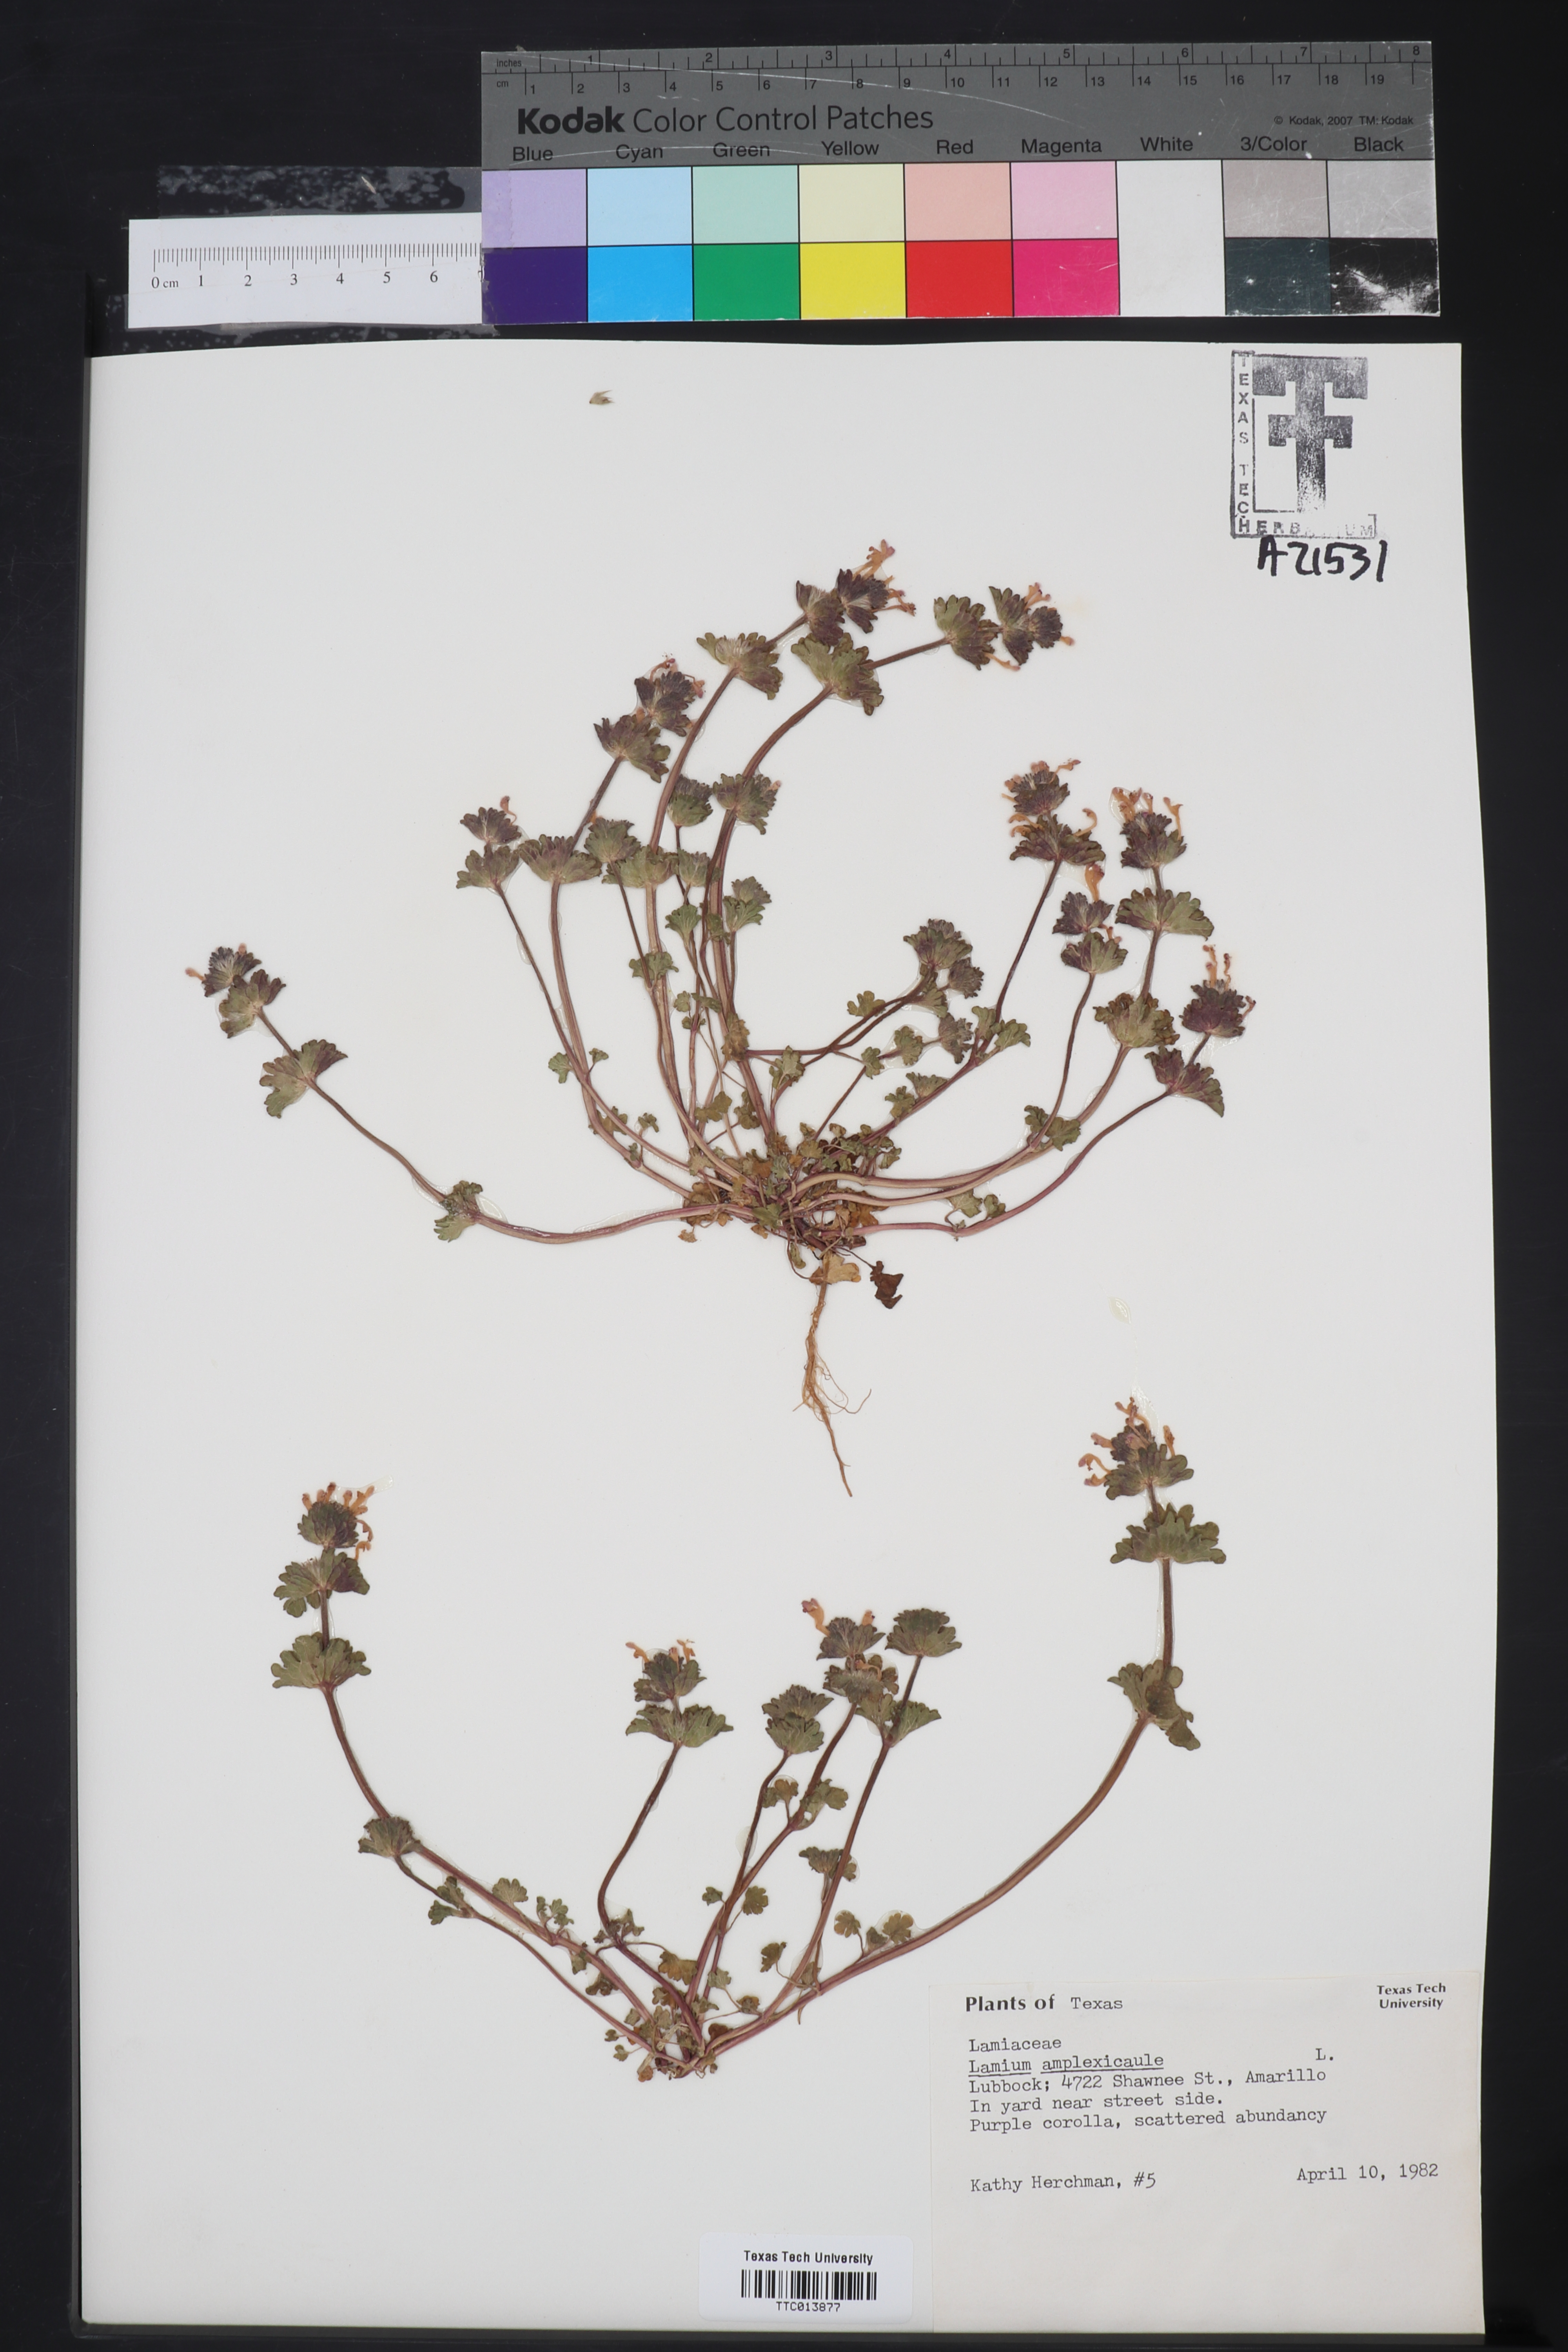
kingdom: Plantae
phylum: Tracheophyta
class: Magnoliopsida
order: Lamiales
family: Lamiaceae
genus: Lamium
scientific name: Lamium amplexicaule
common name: Henbit dead-nettle
